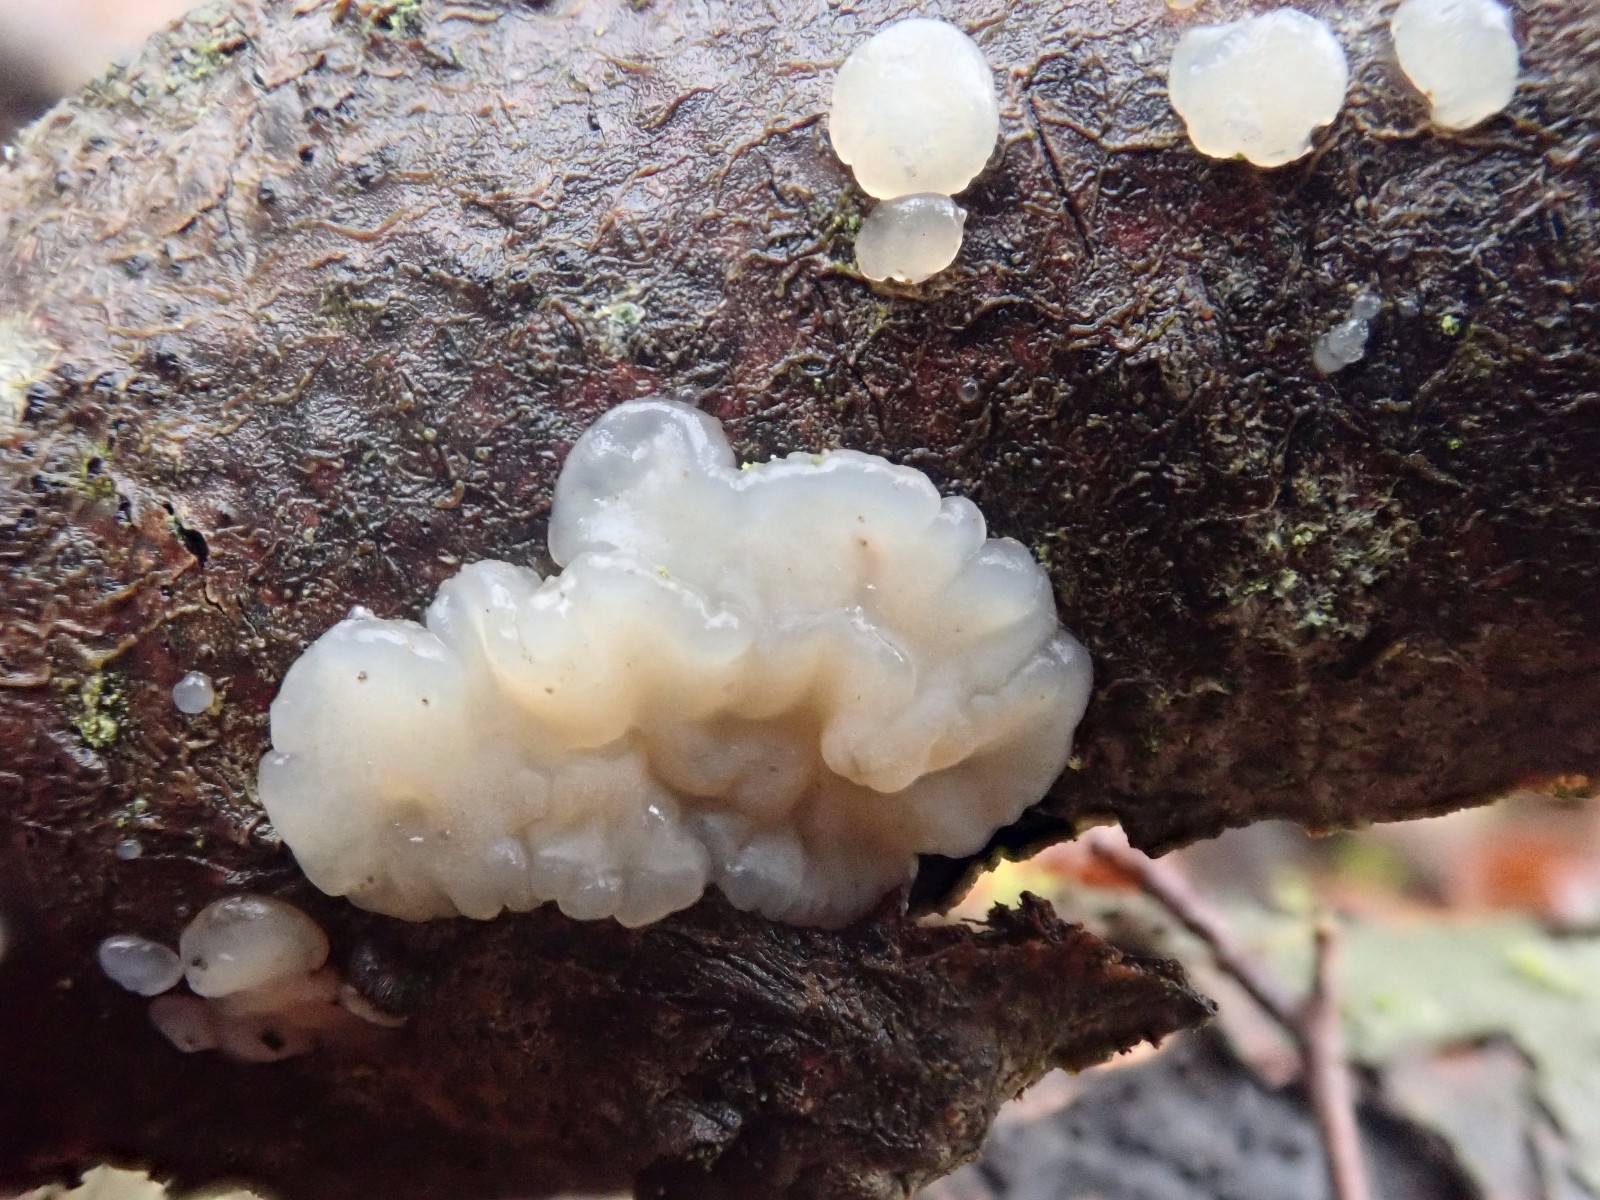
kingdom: Fungi
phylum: Basidiomycota
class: Agaricomycetes
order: Auriculariales
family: Auriculariaceae
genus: Exidia
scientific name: Exidia thuretiana
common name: hvidlig bævretop
